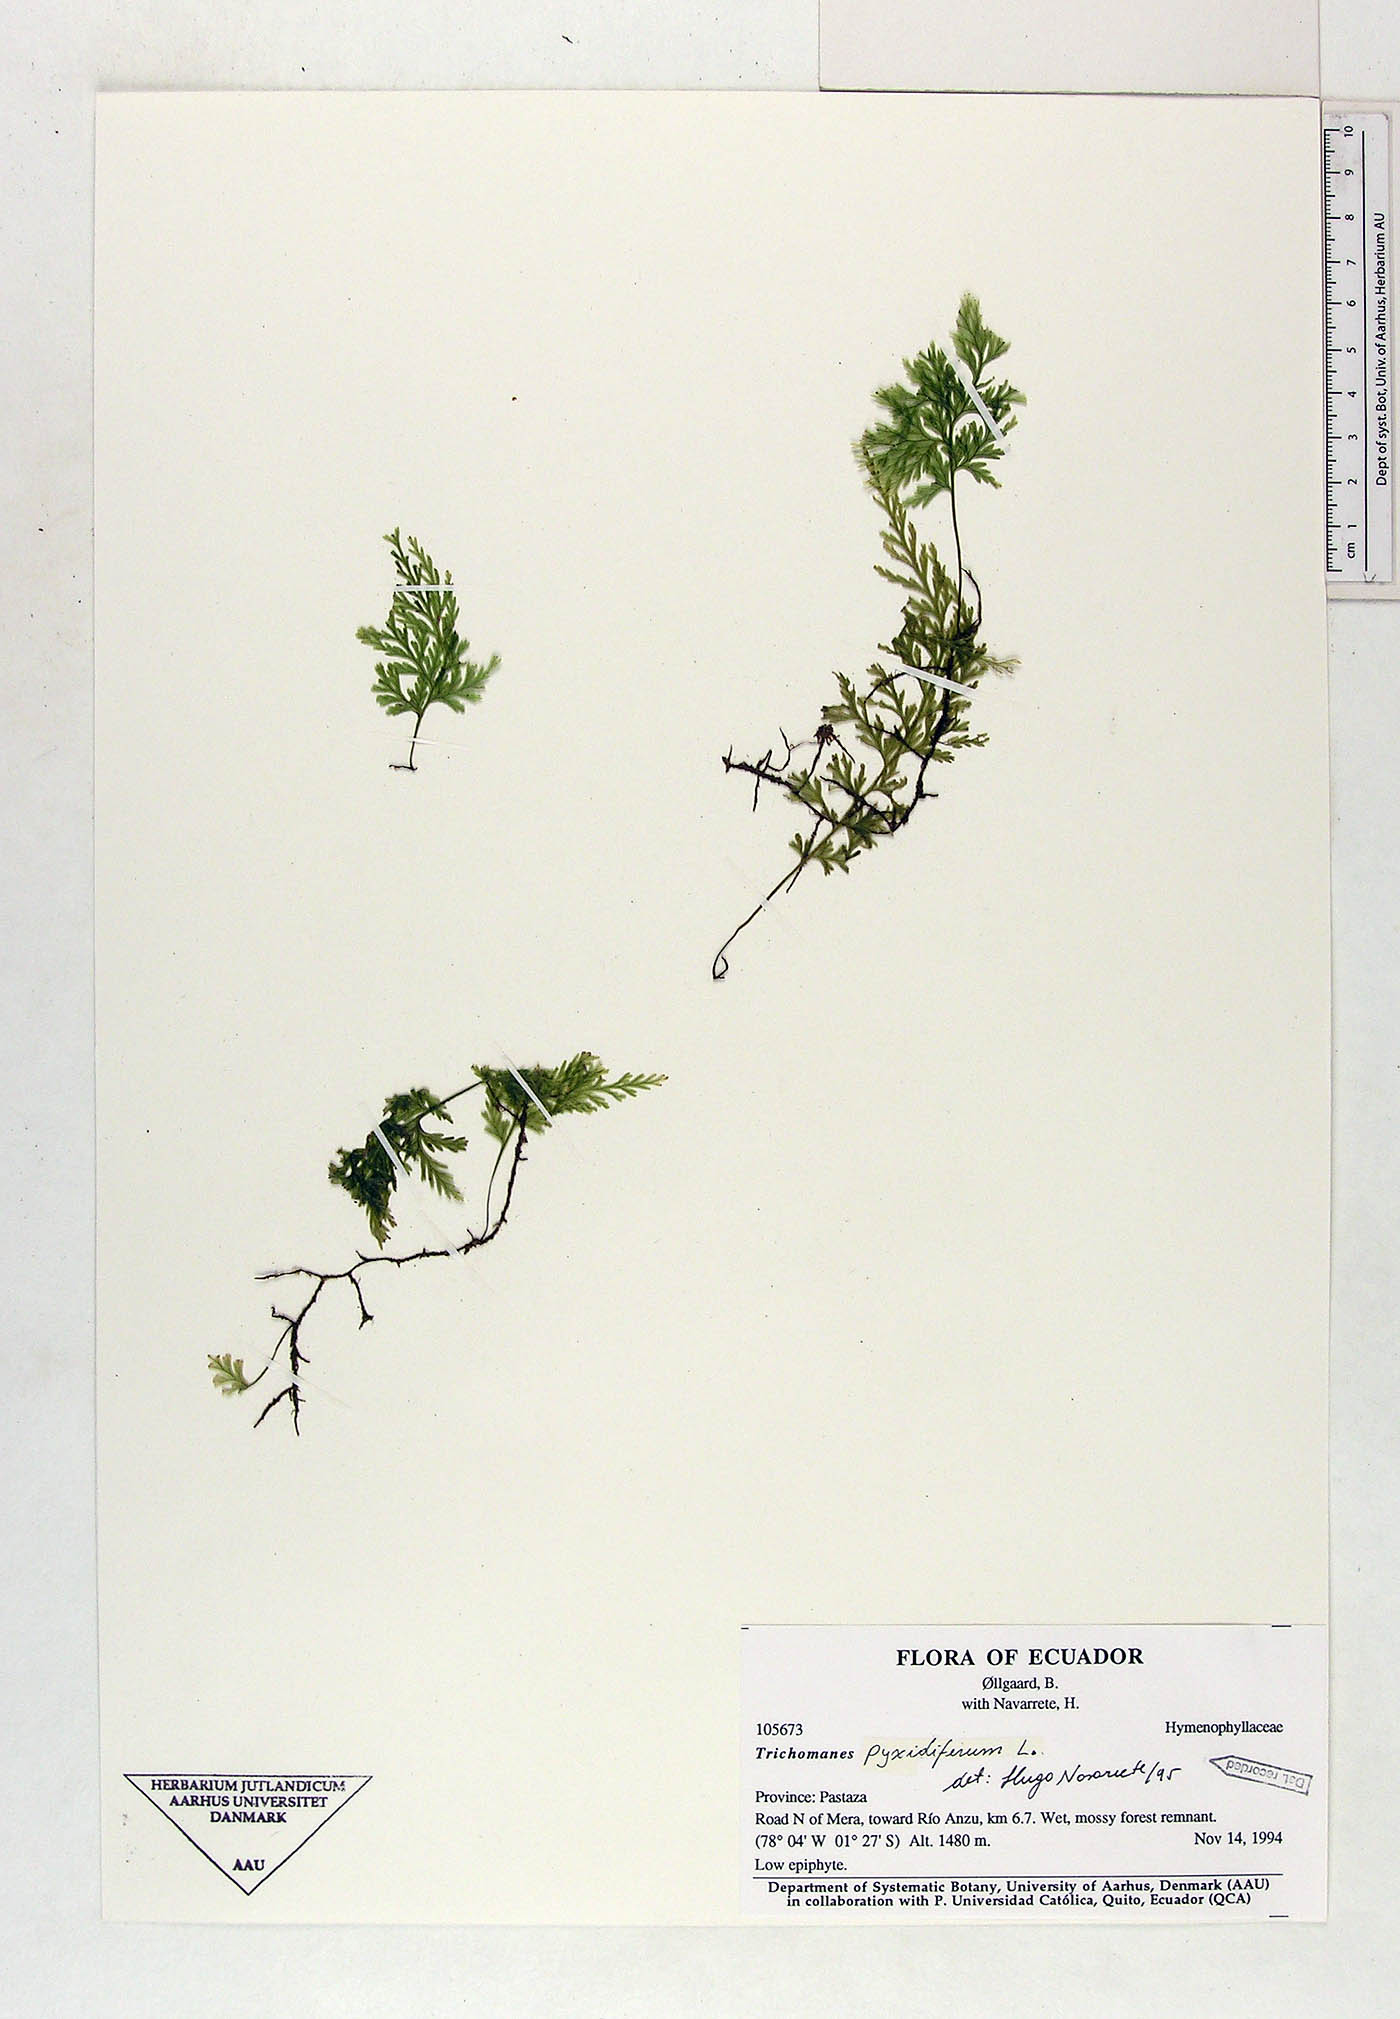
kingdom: Plantae
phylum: Tracheophyta
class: Polypodiopsida
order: Hymenophyllales
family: Hymenophyllaceae
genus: Polyphlebium
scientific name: Polyphlebium pyxidiferum
